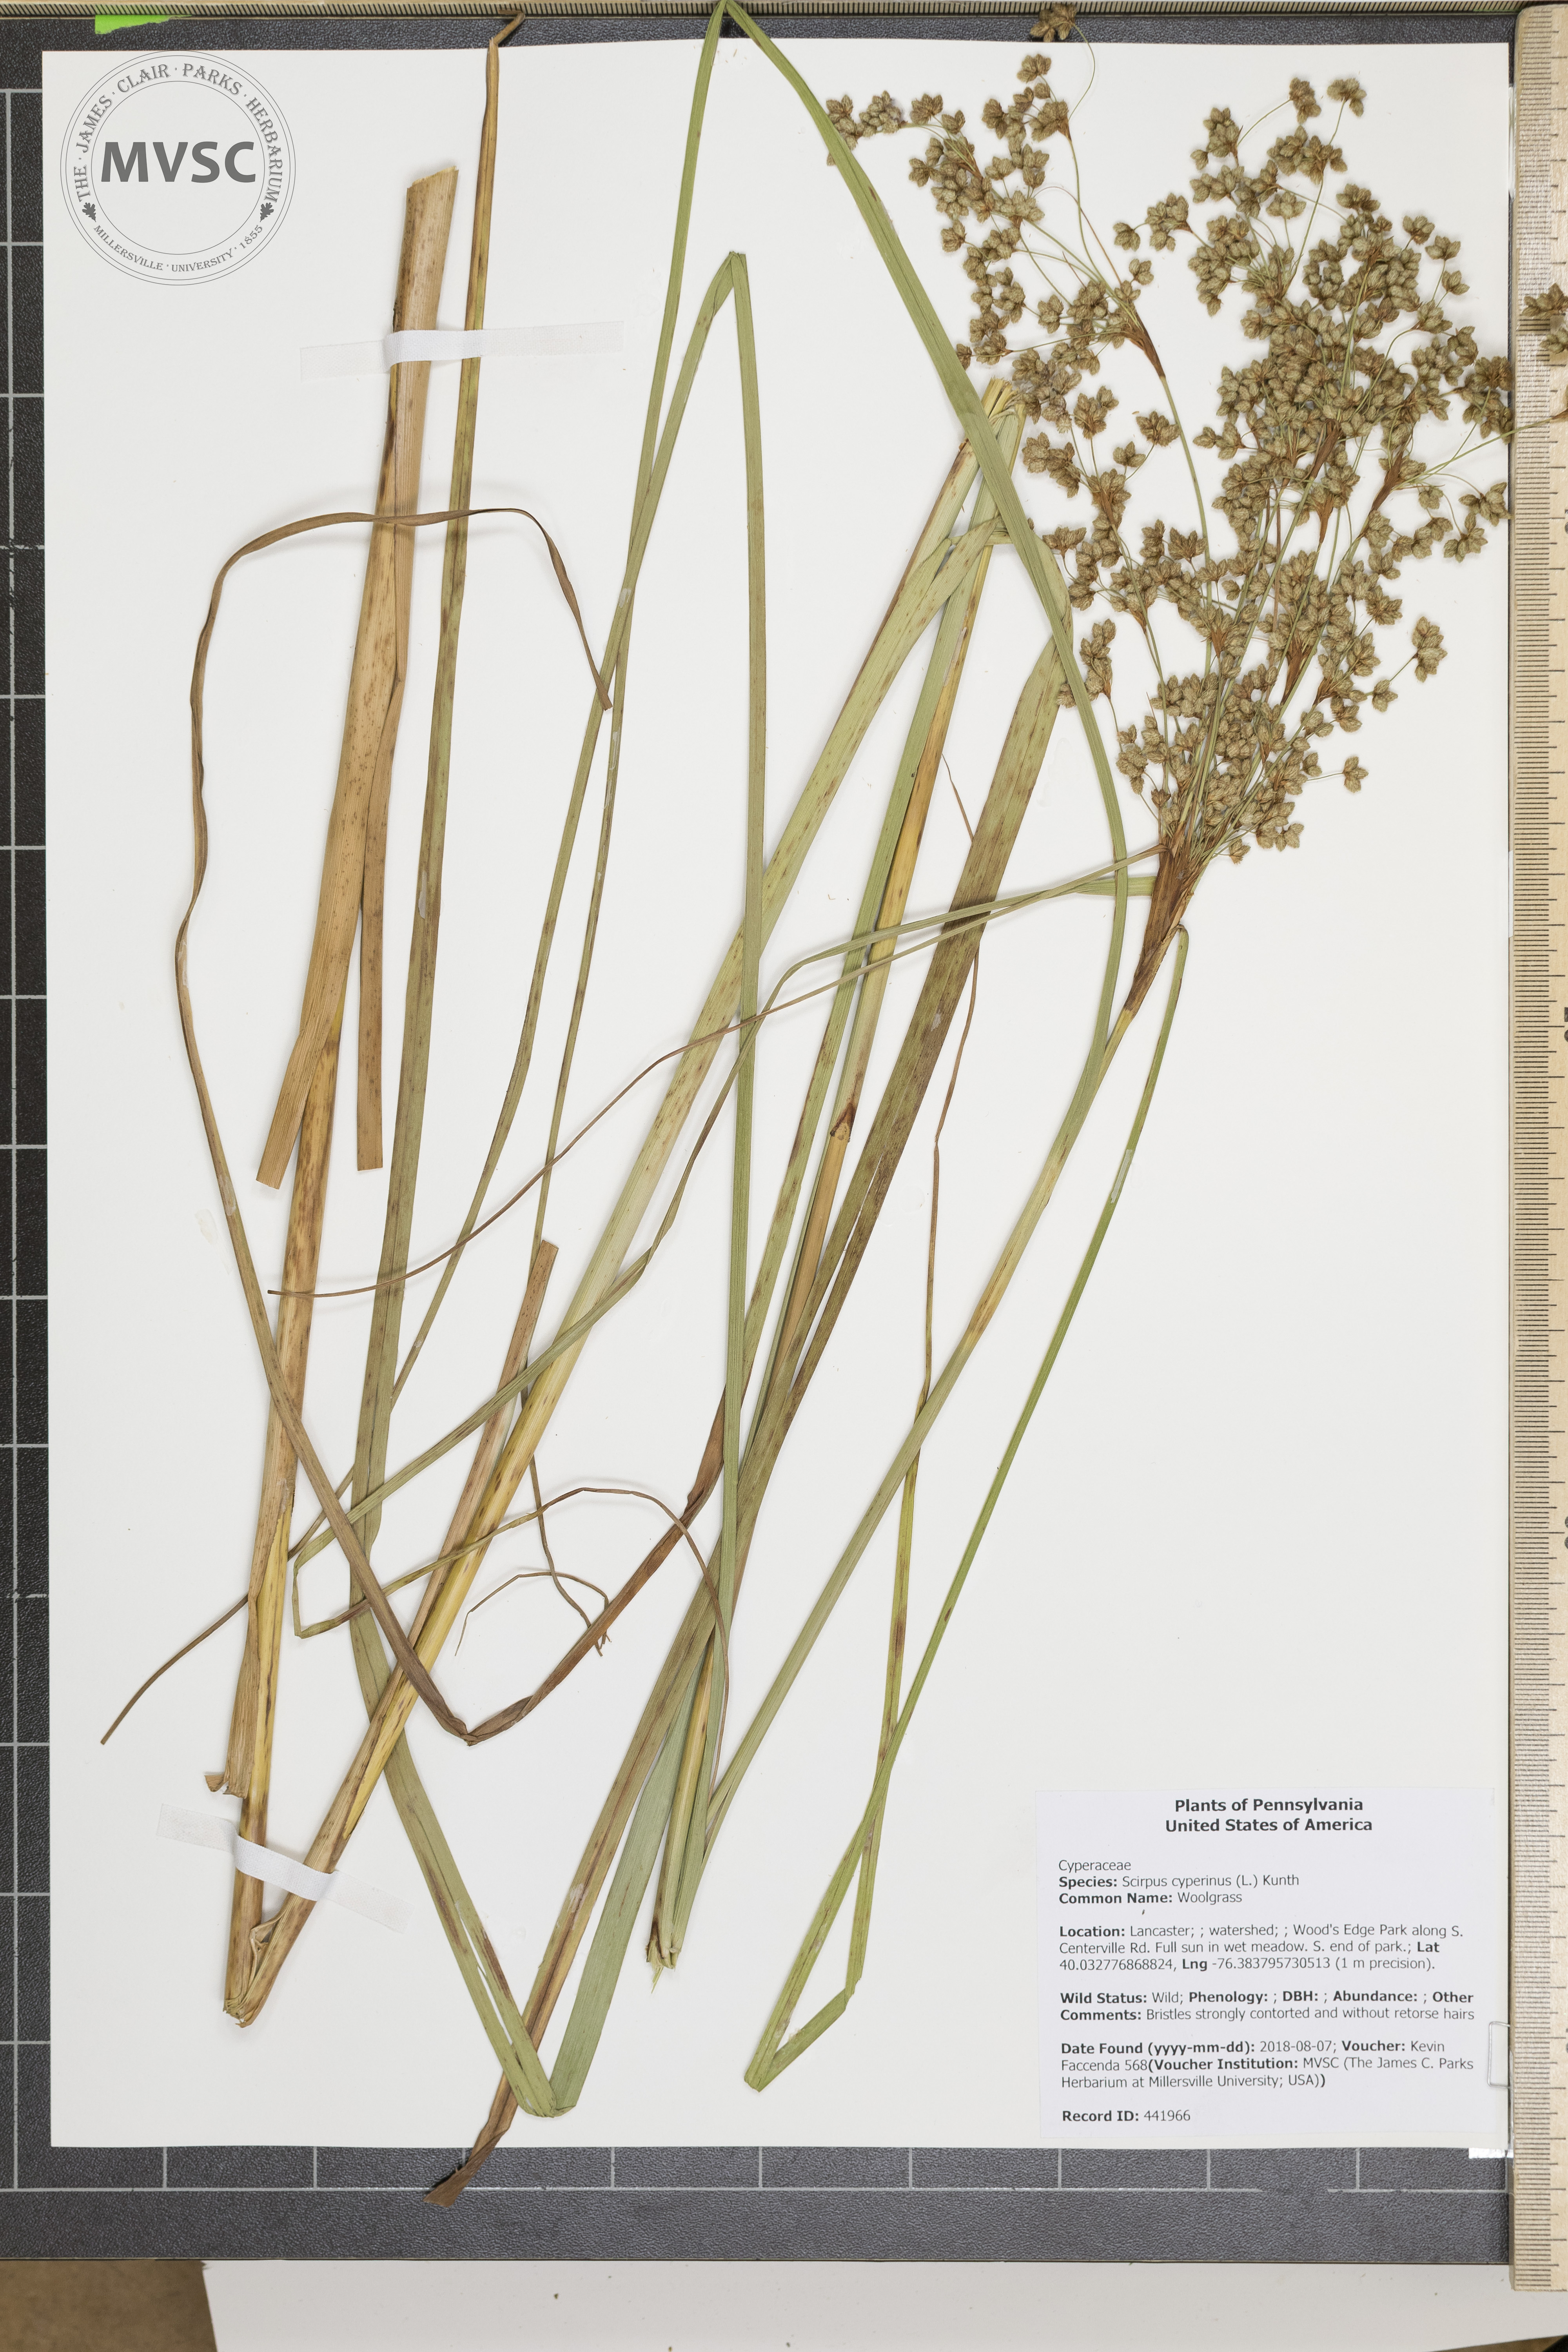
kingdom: Plantae
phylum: Tracheophyta
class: Liliopsida
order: Poales
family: Cyperaceae
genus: Scirpus
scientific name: Scirpus cyperinus
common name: Woolgrass
